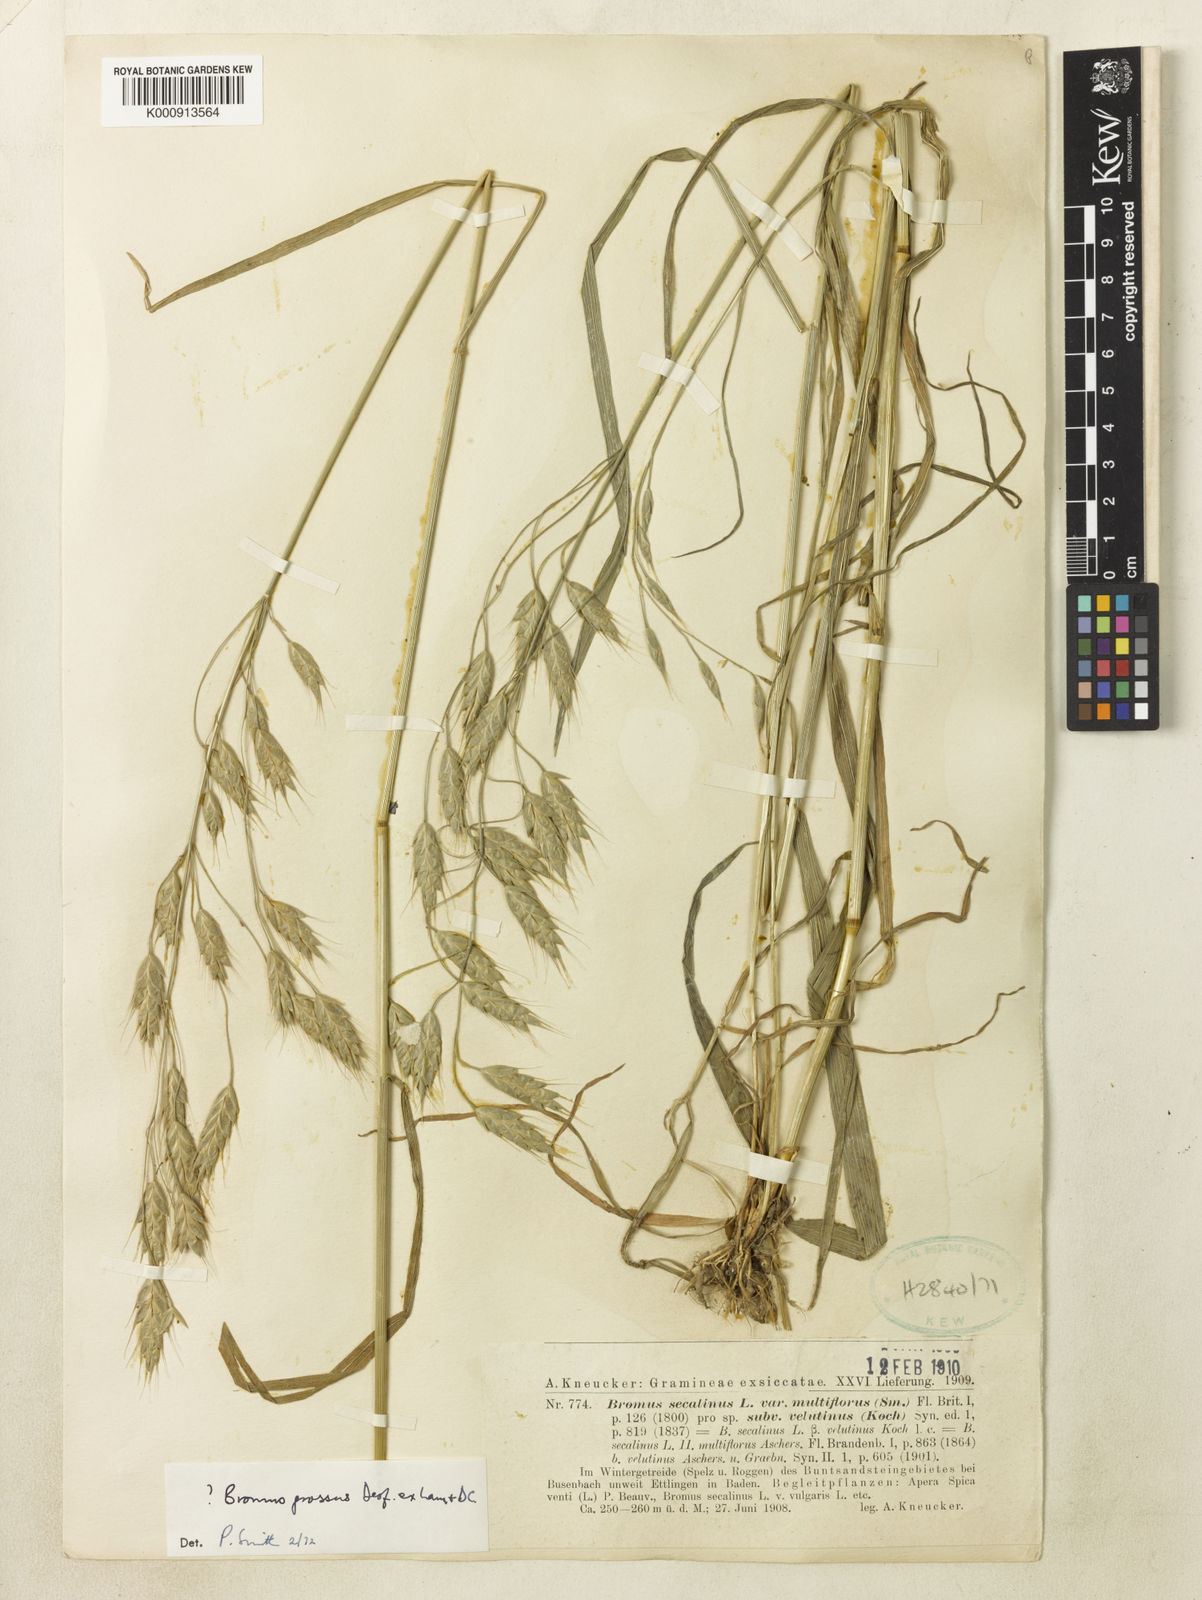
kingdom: Plantae
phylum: Tracheophyta
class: Liliopsida
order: Poales
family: Poaceae
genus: Bromus
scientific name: Bromus grossus
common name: Whiskered brome
